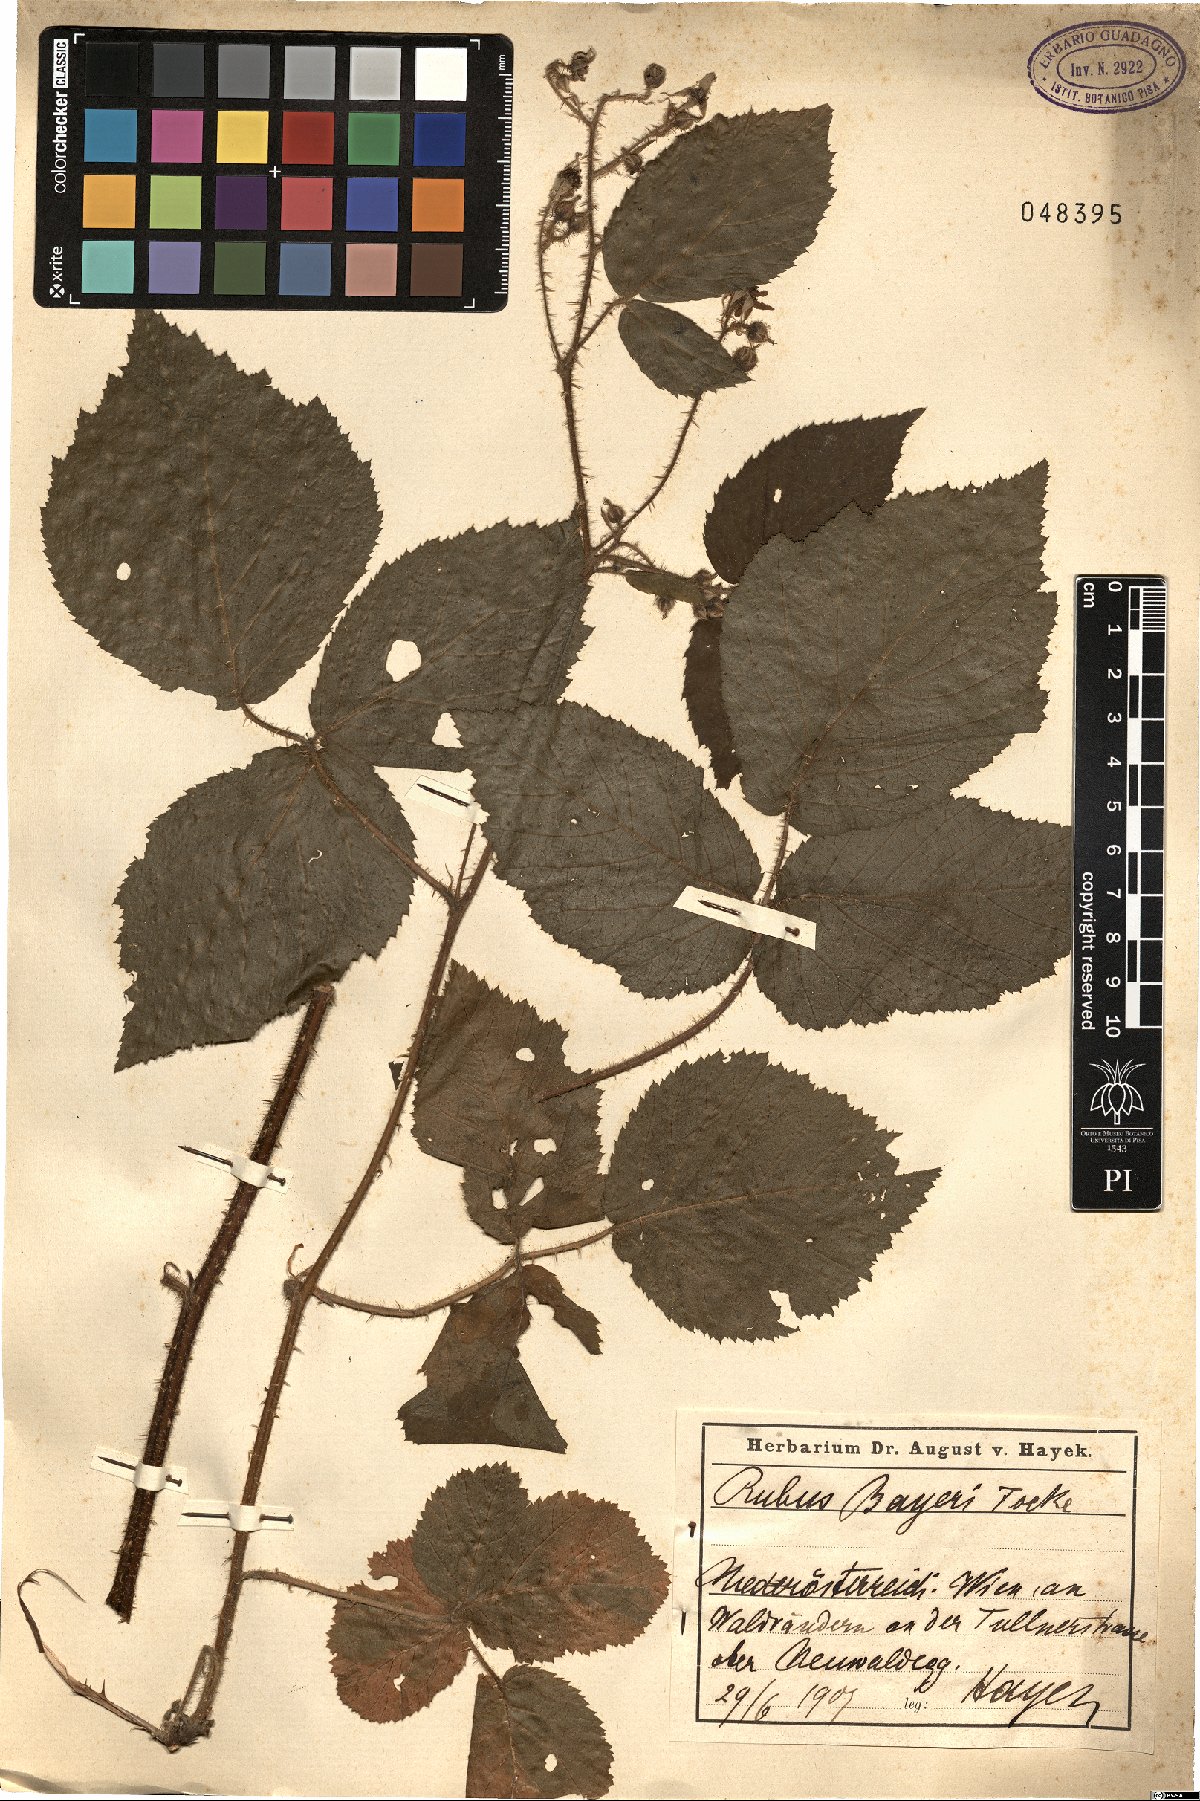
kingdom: Plantae
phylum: Tracheophyta
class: Magnoliopsida
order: Rosales
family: Rosaceae
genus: Rubus
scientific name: Rubus rivularis
